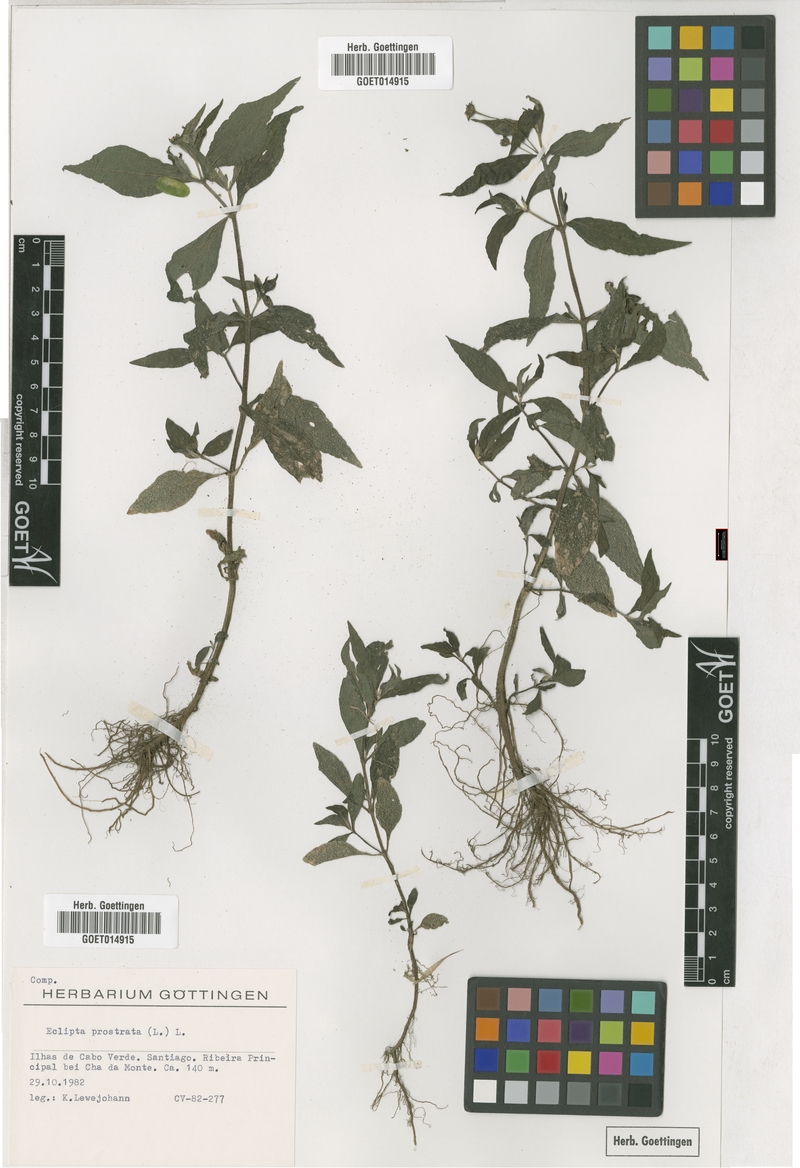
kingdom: Plantae
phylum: Tracheophyta
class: Magnoliopsida
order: Asterales
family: Asteraceae
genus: Eclipta
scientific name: Eclipta prostrata
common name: False daisy
